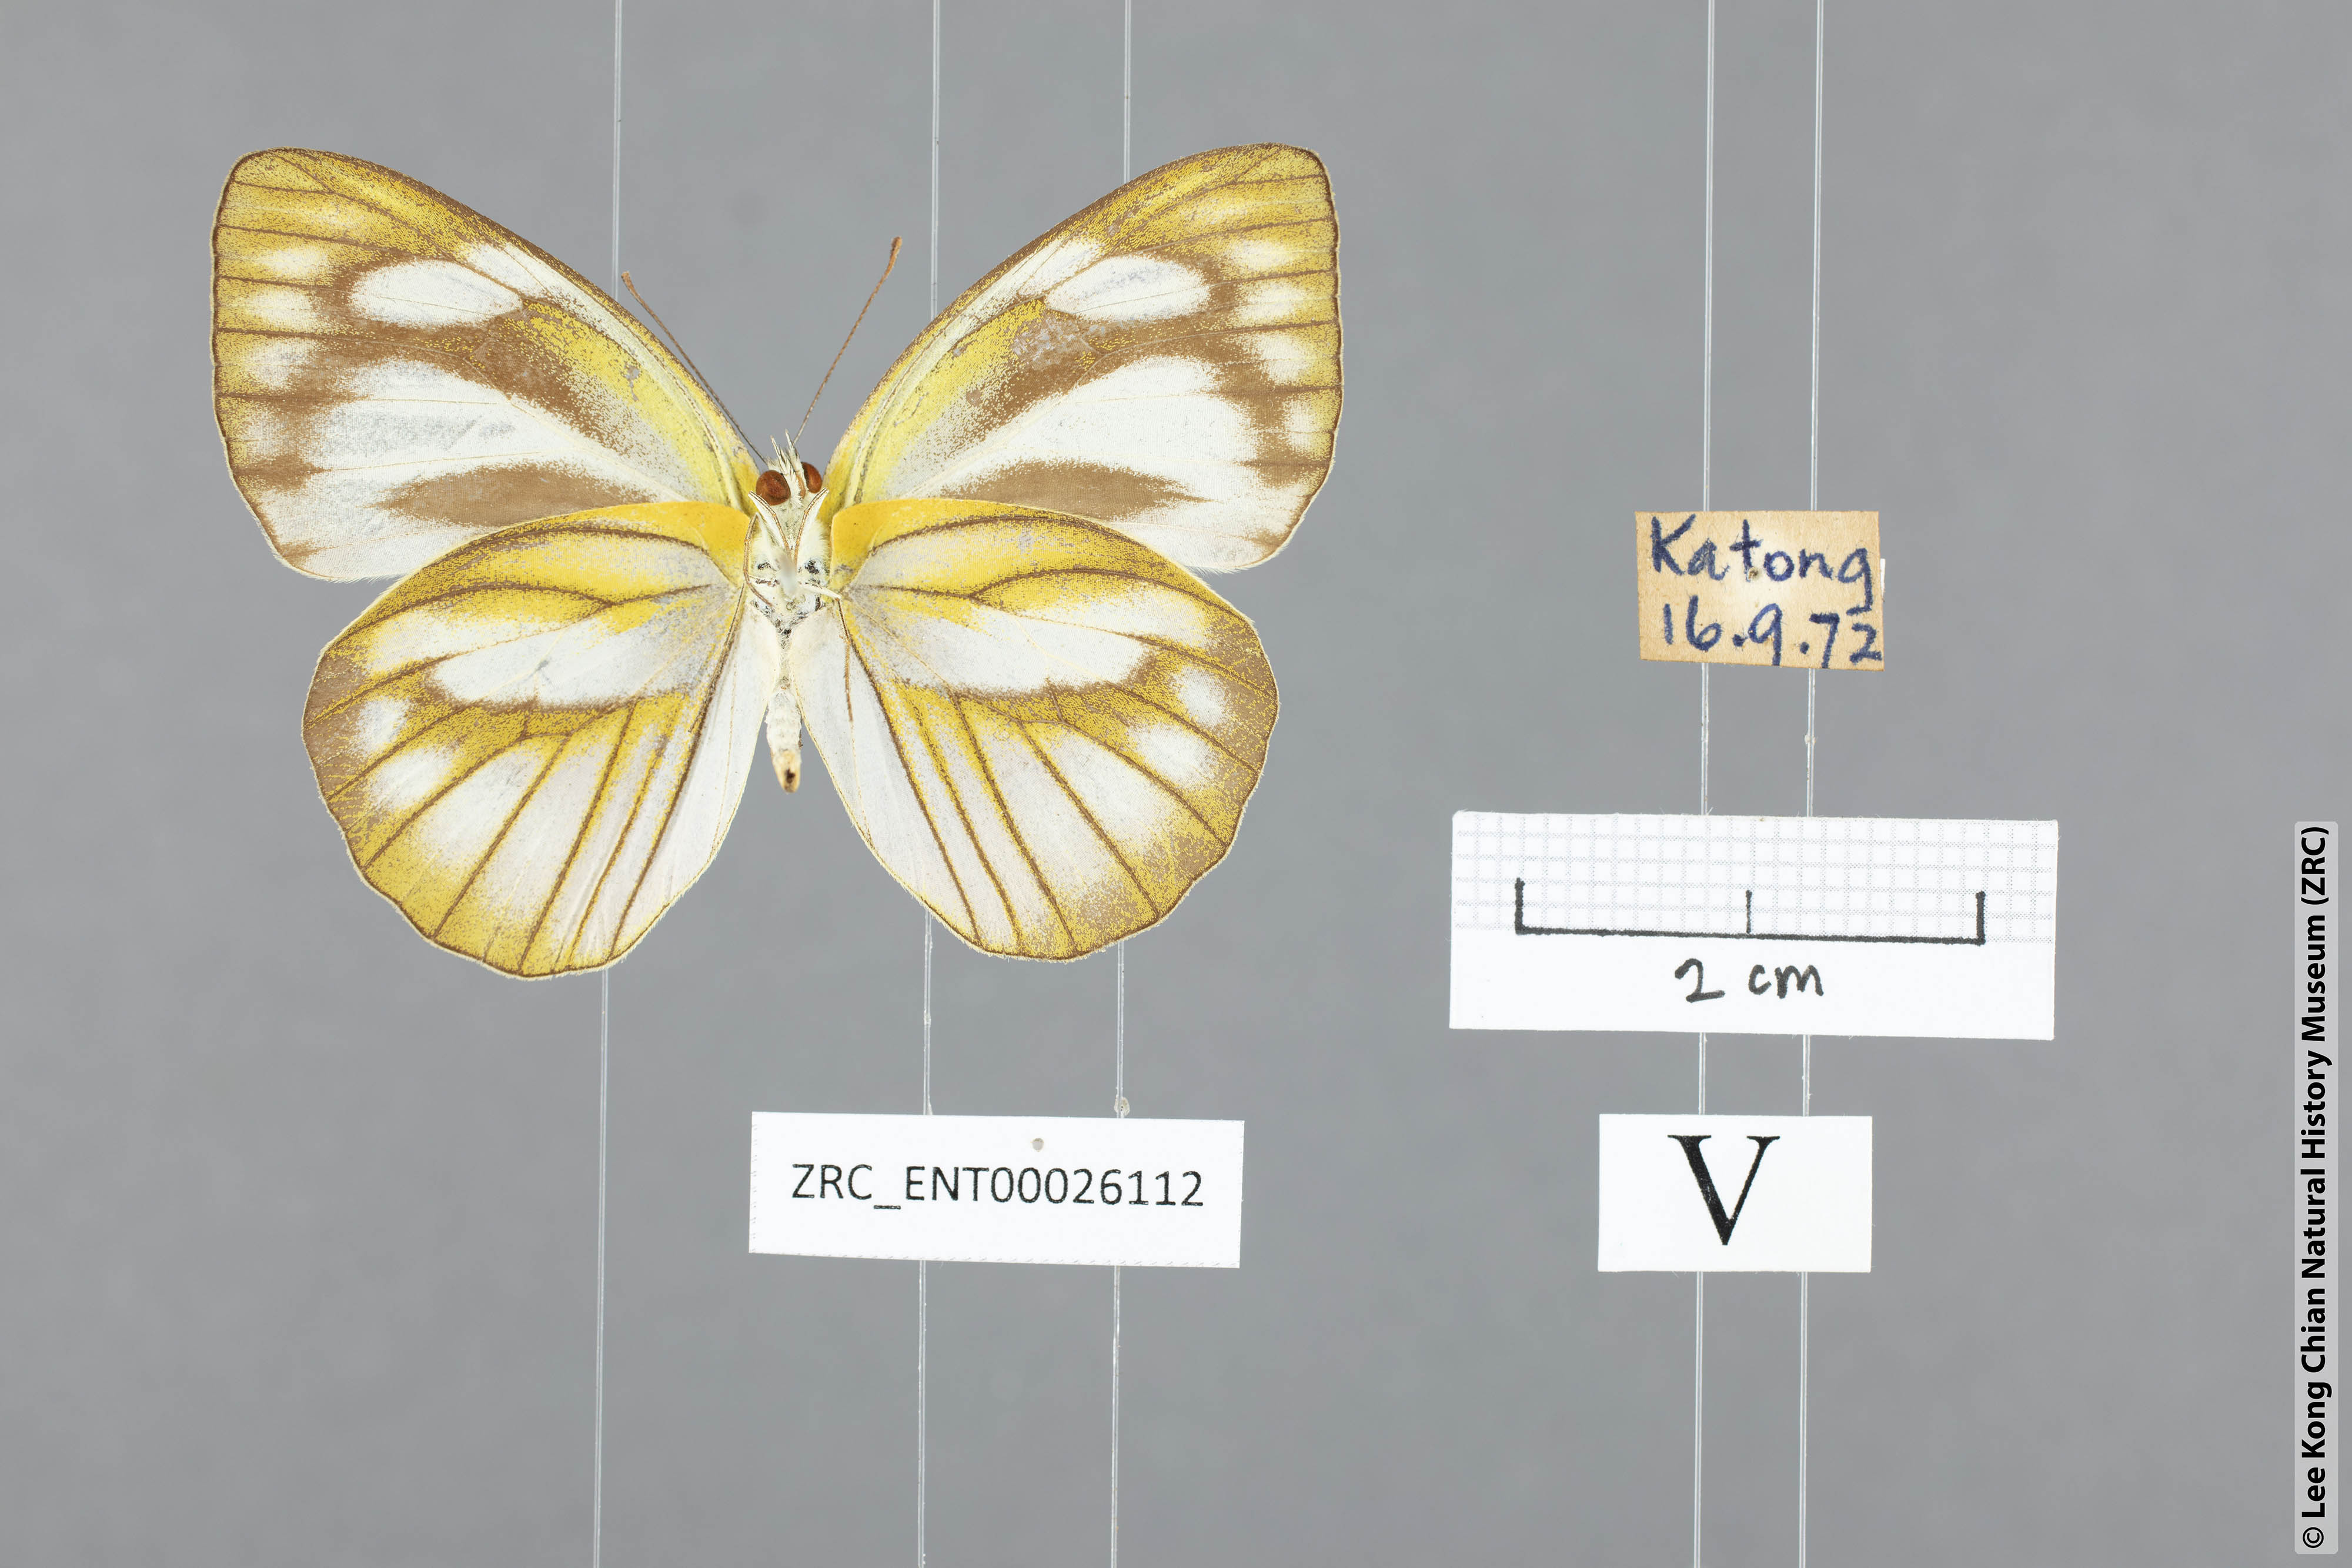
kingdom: Animalia
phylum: Arthropoda
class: Insecta
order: Lepidoptera
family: Pieridae
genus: Appias
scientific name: Appias libythea
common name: Striped albatross
